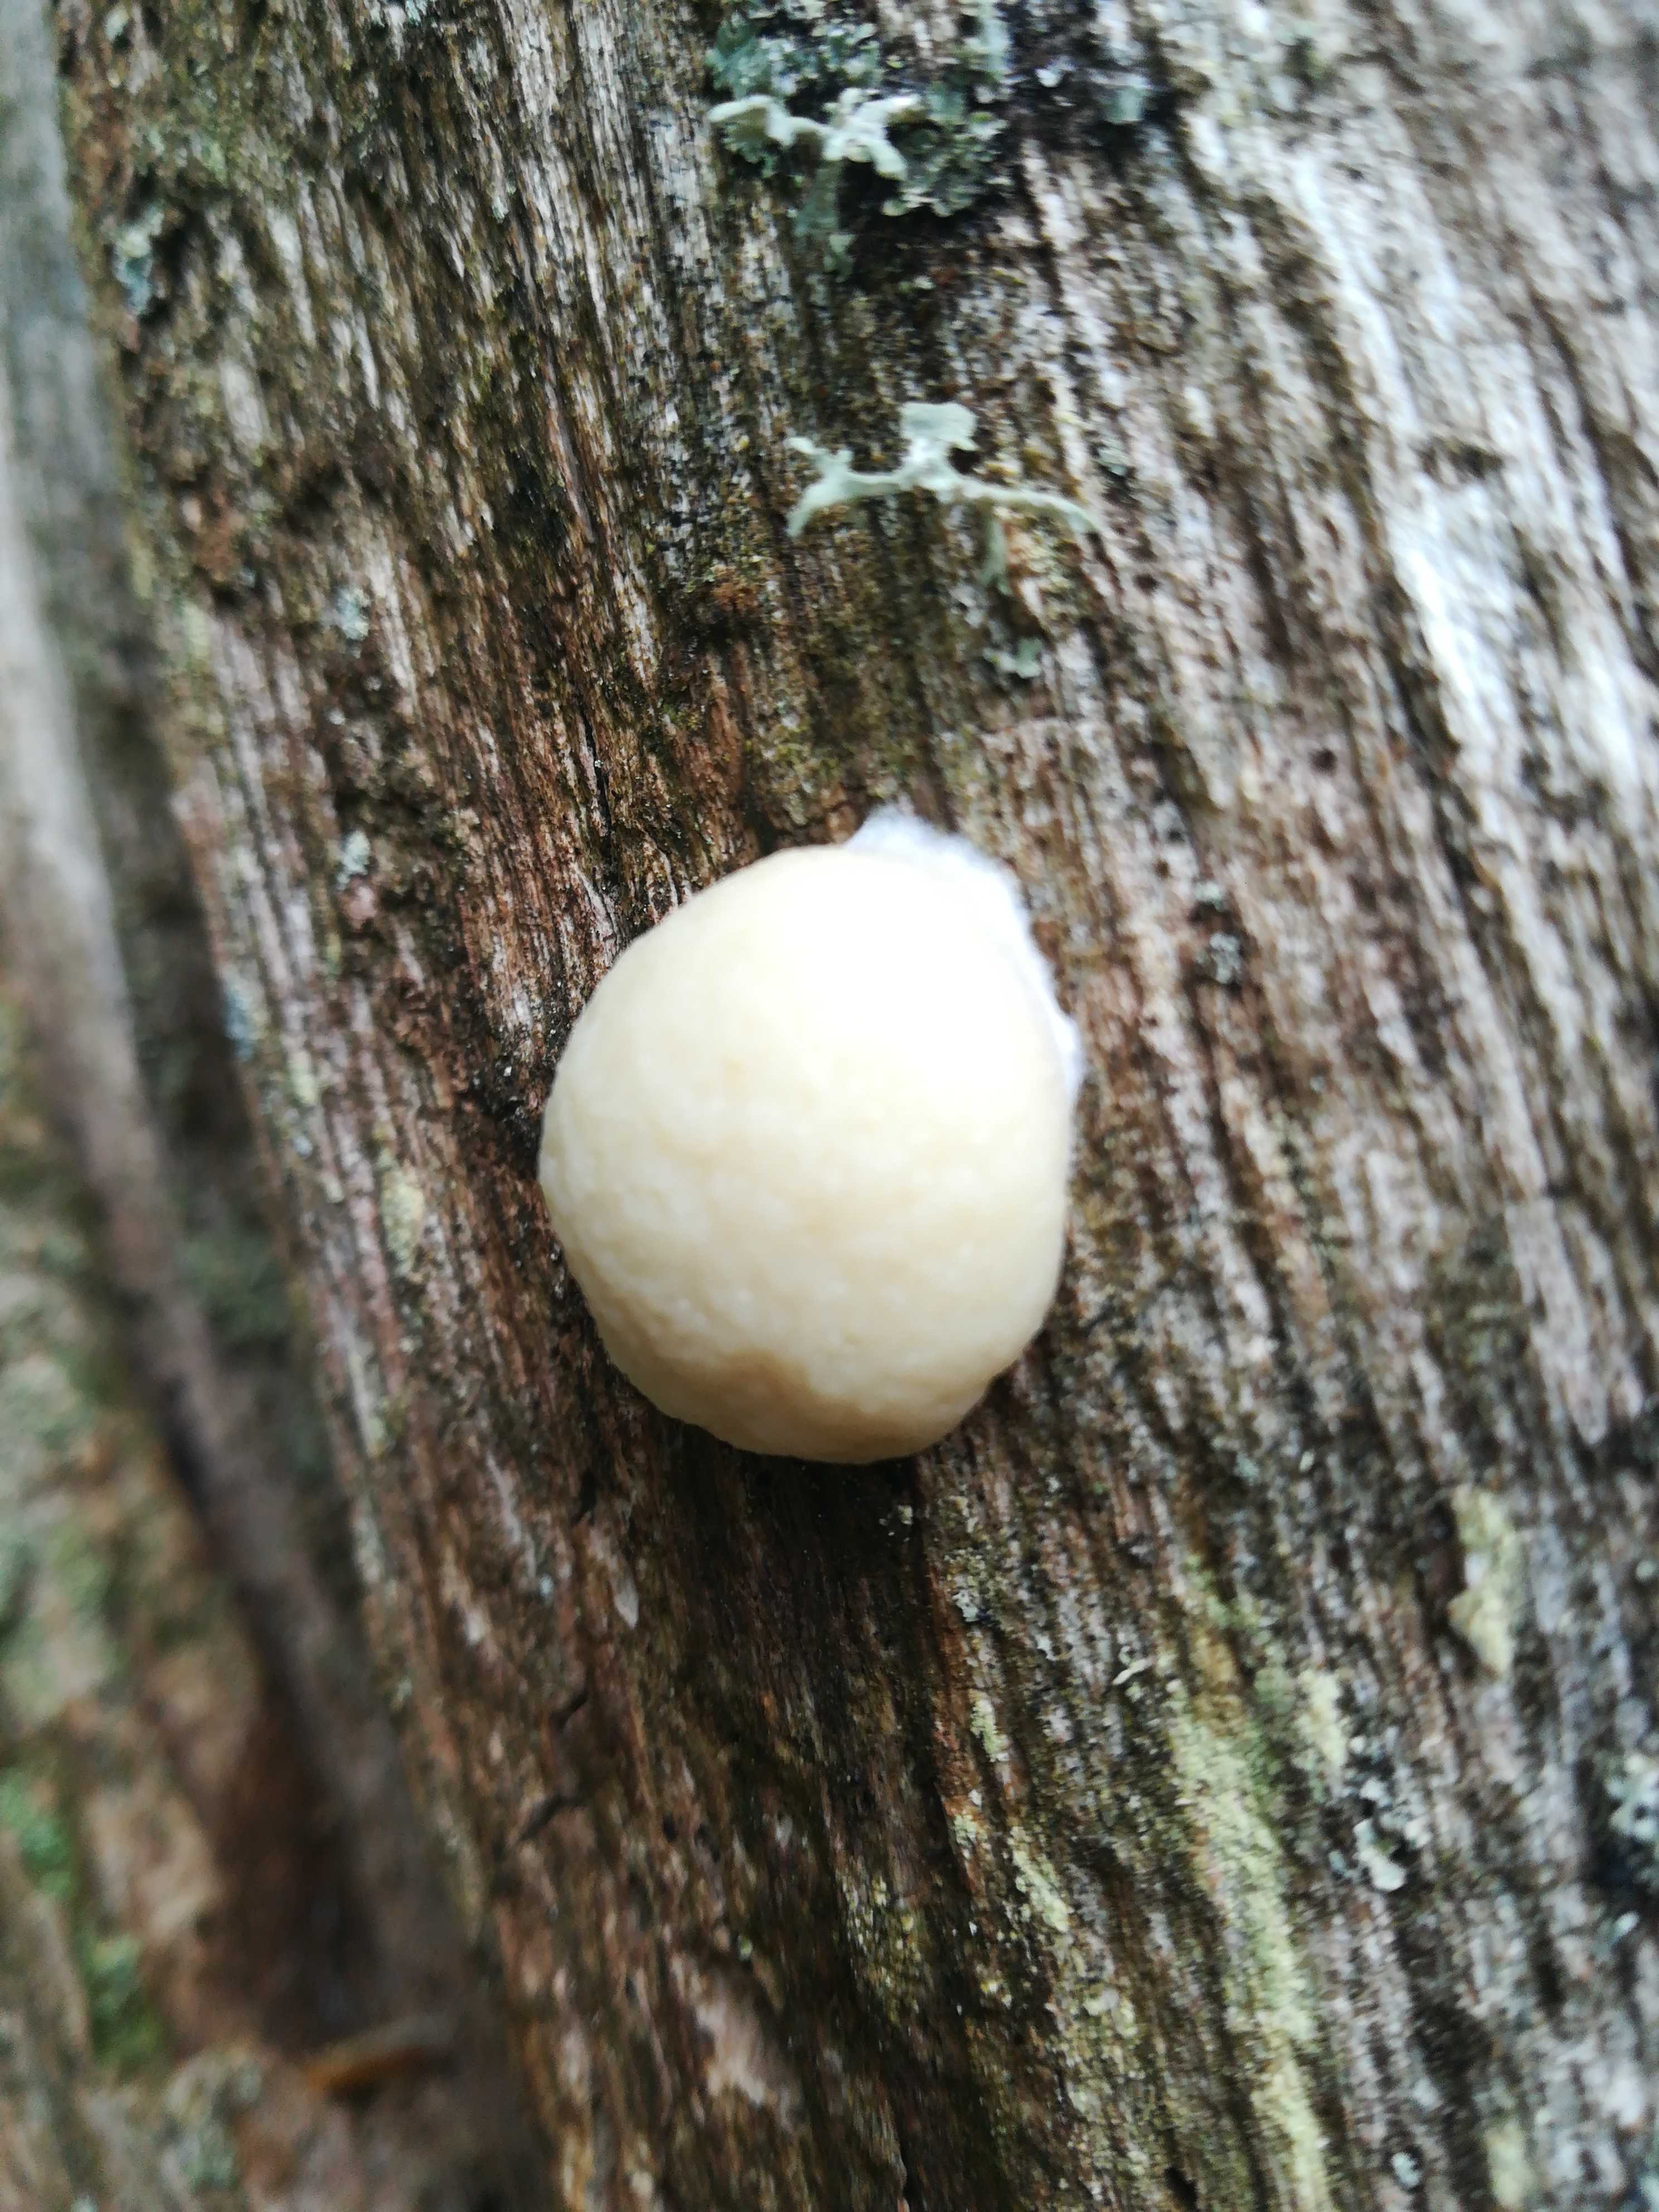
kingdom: Protozoa
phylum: Mycetozoa
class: Myxomycetes
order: Cribrariales
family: Tubiferaceae
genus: Reticularia
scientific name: Reticularia lycoperdon
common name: skinnende støvpude
